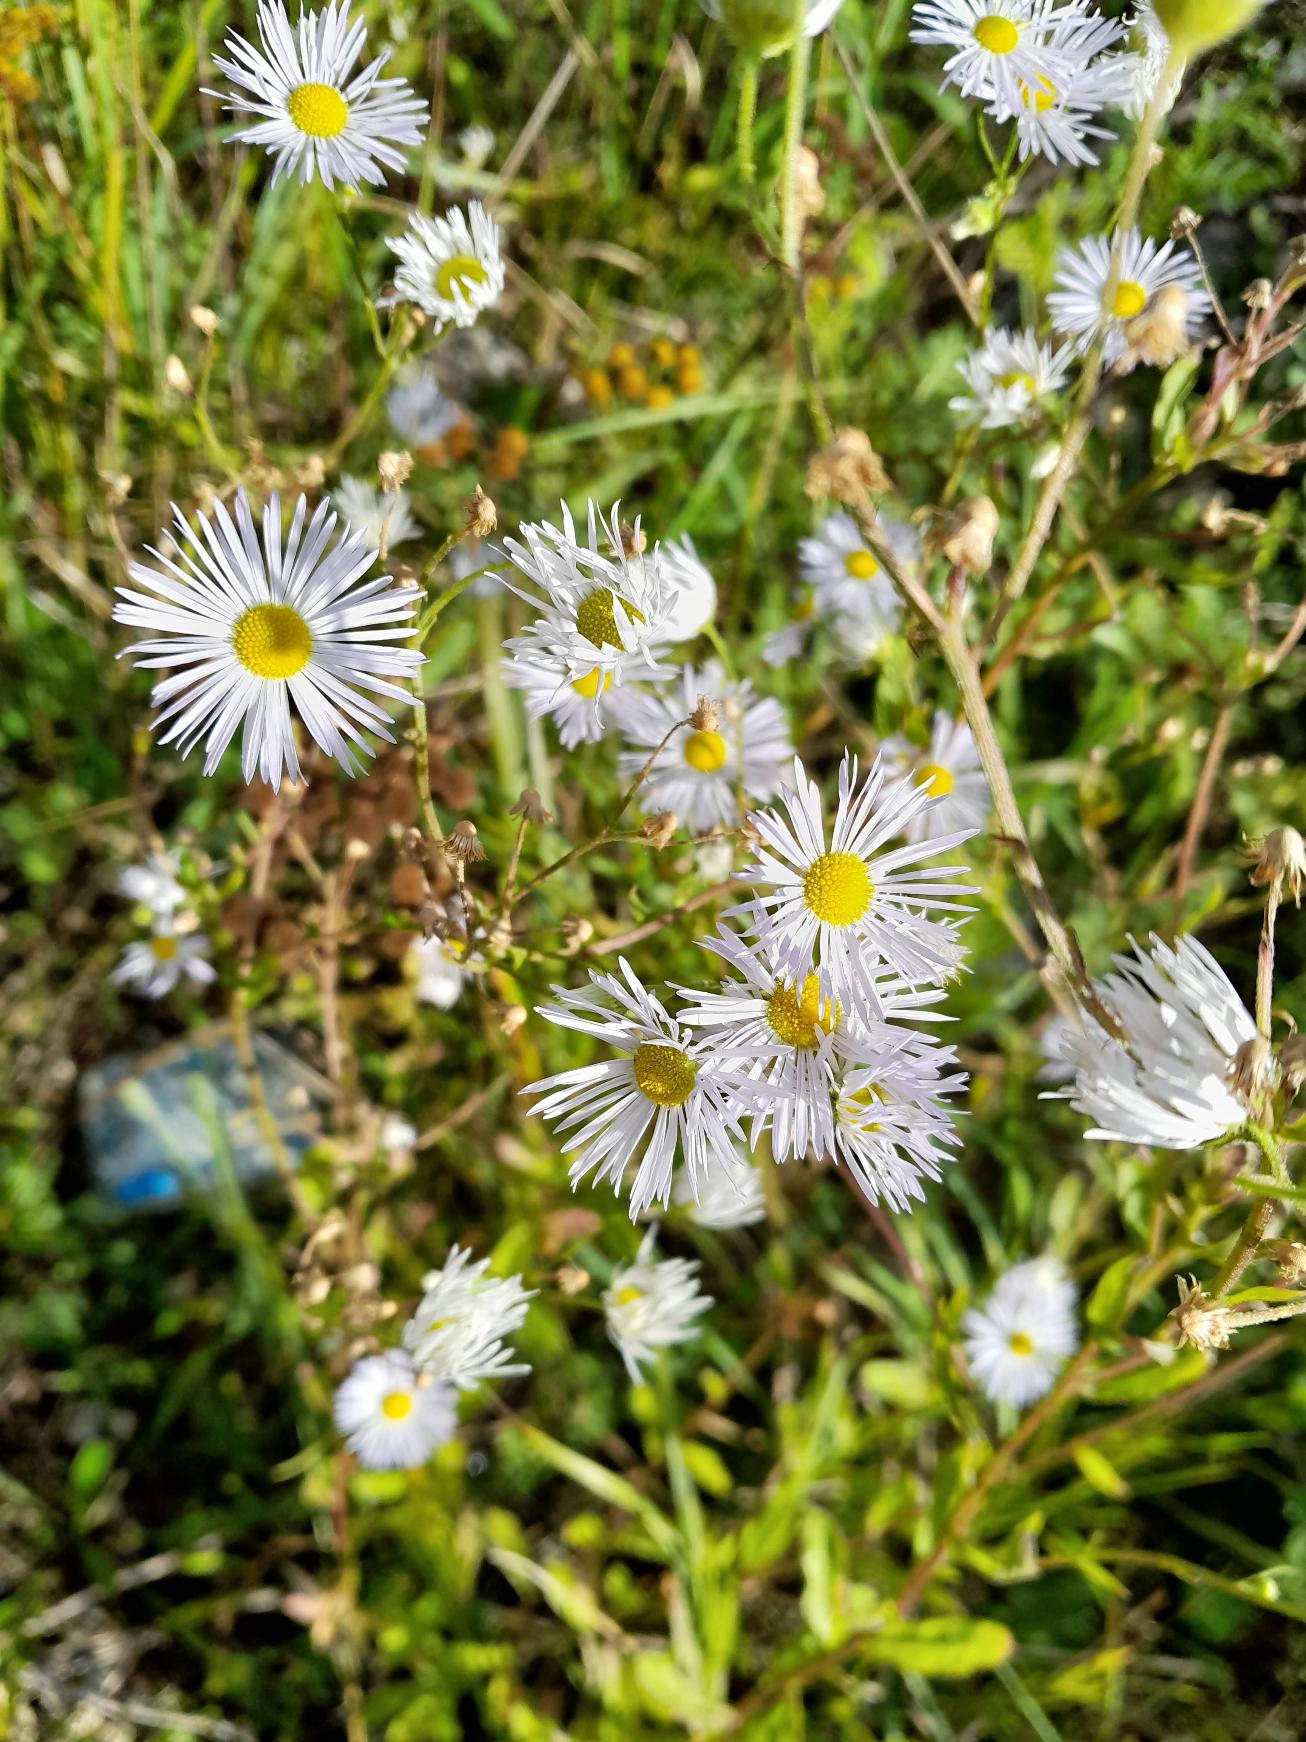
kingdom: Plantae
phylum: Tracheophyta
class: Magnoliopsida
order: Asterales
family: Asteraceae
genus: Erigeron
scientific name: Erigeron annuus
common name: Smalstråle
